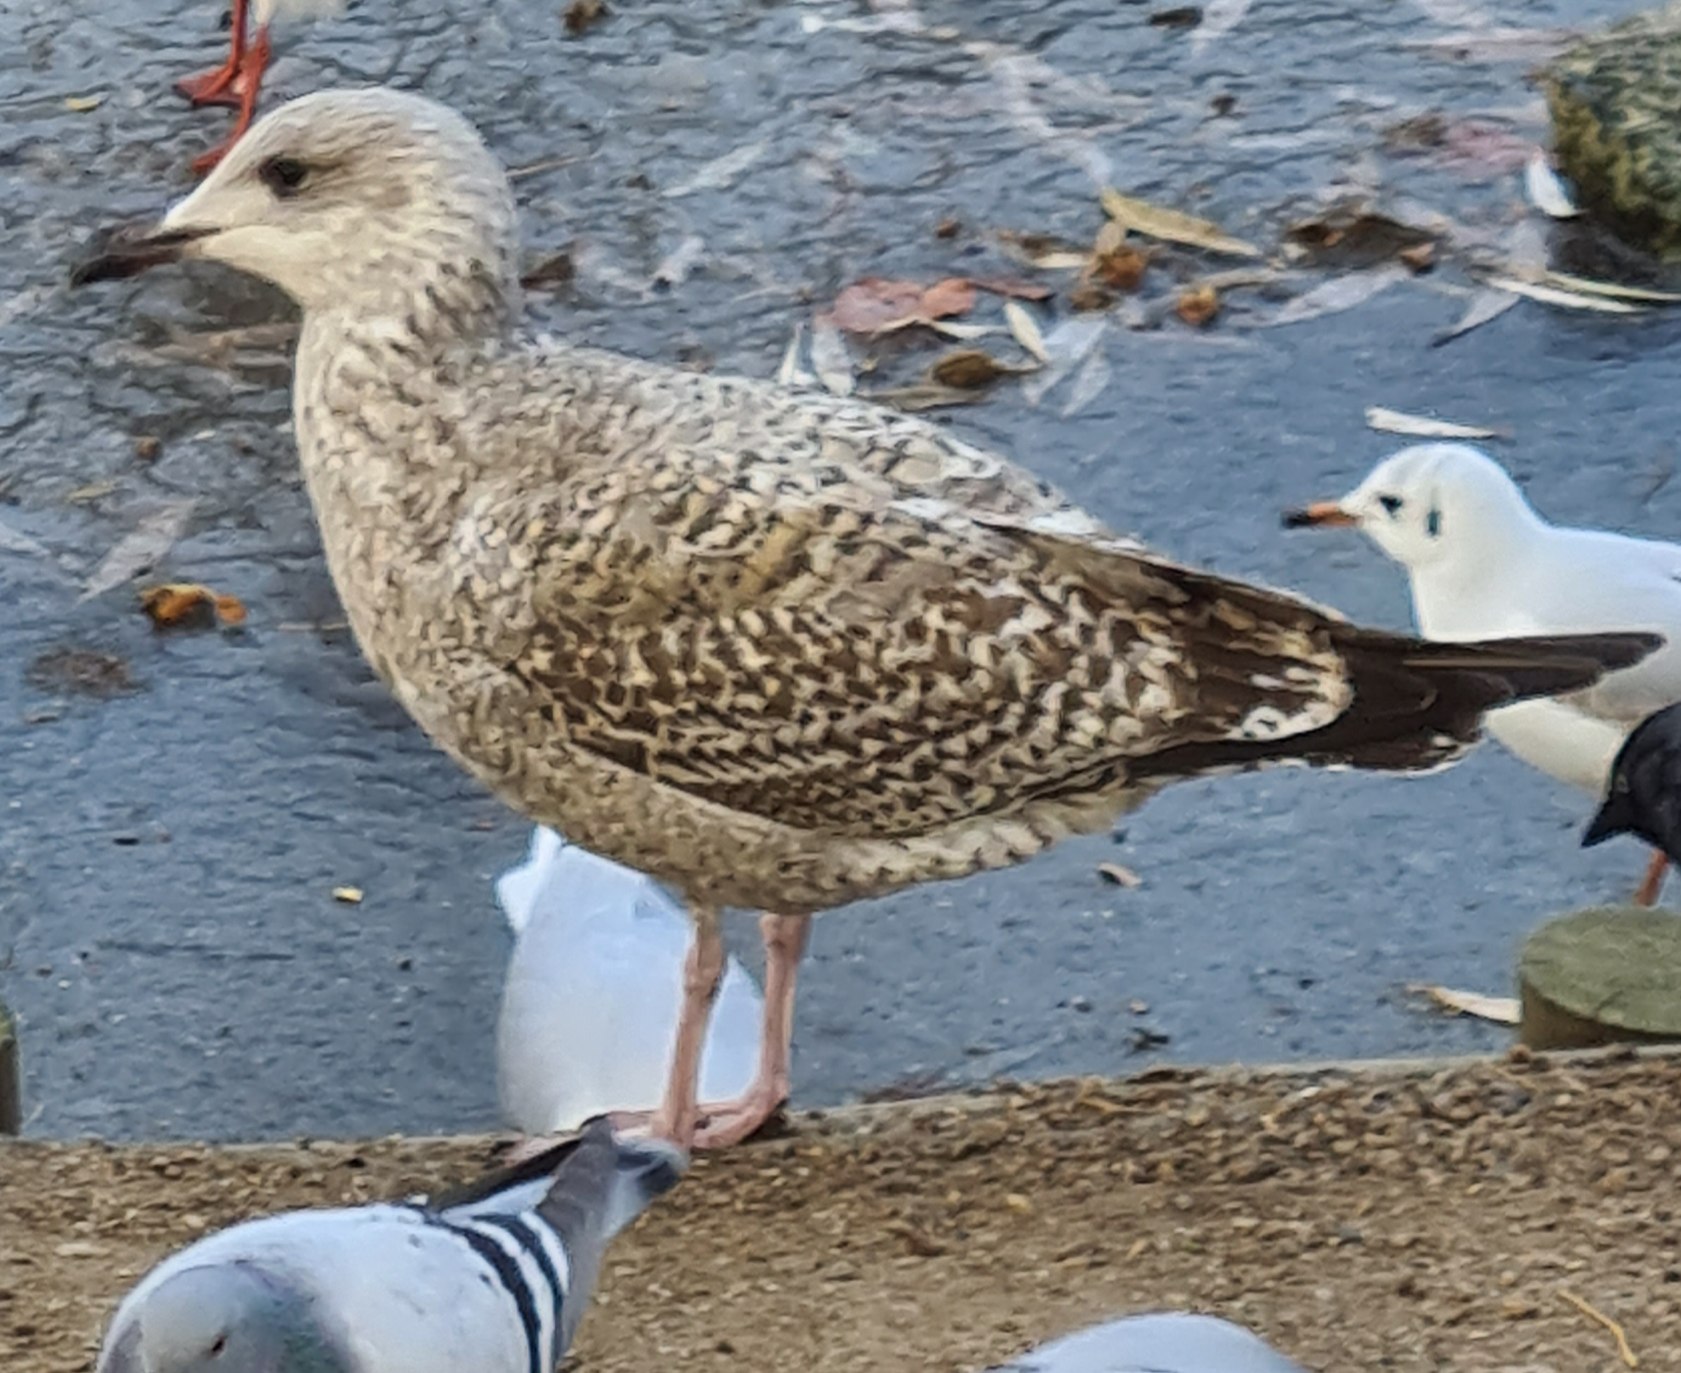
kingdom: Animalia
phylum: Chordata
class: Aves
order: Charadriiformes
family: Laridae
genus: Larus
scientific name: Larus argentatus
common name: Sølvmåge
